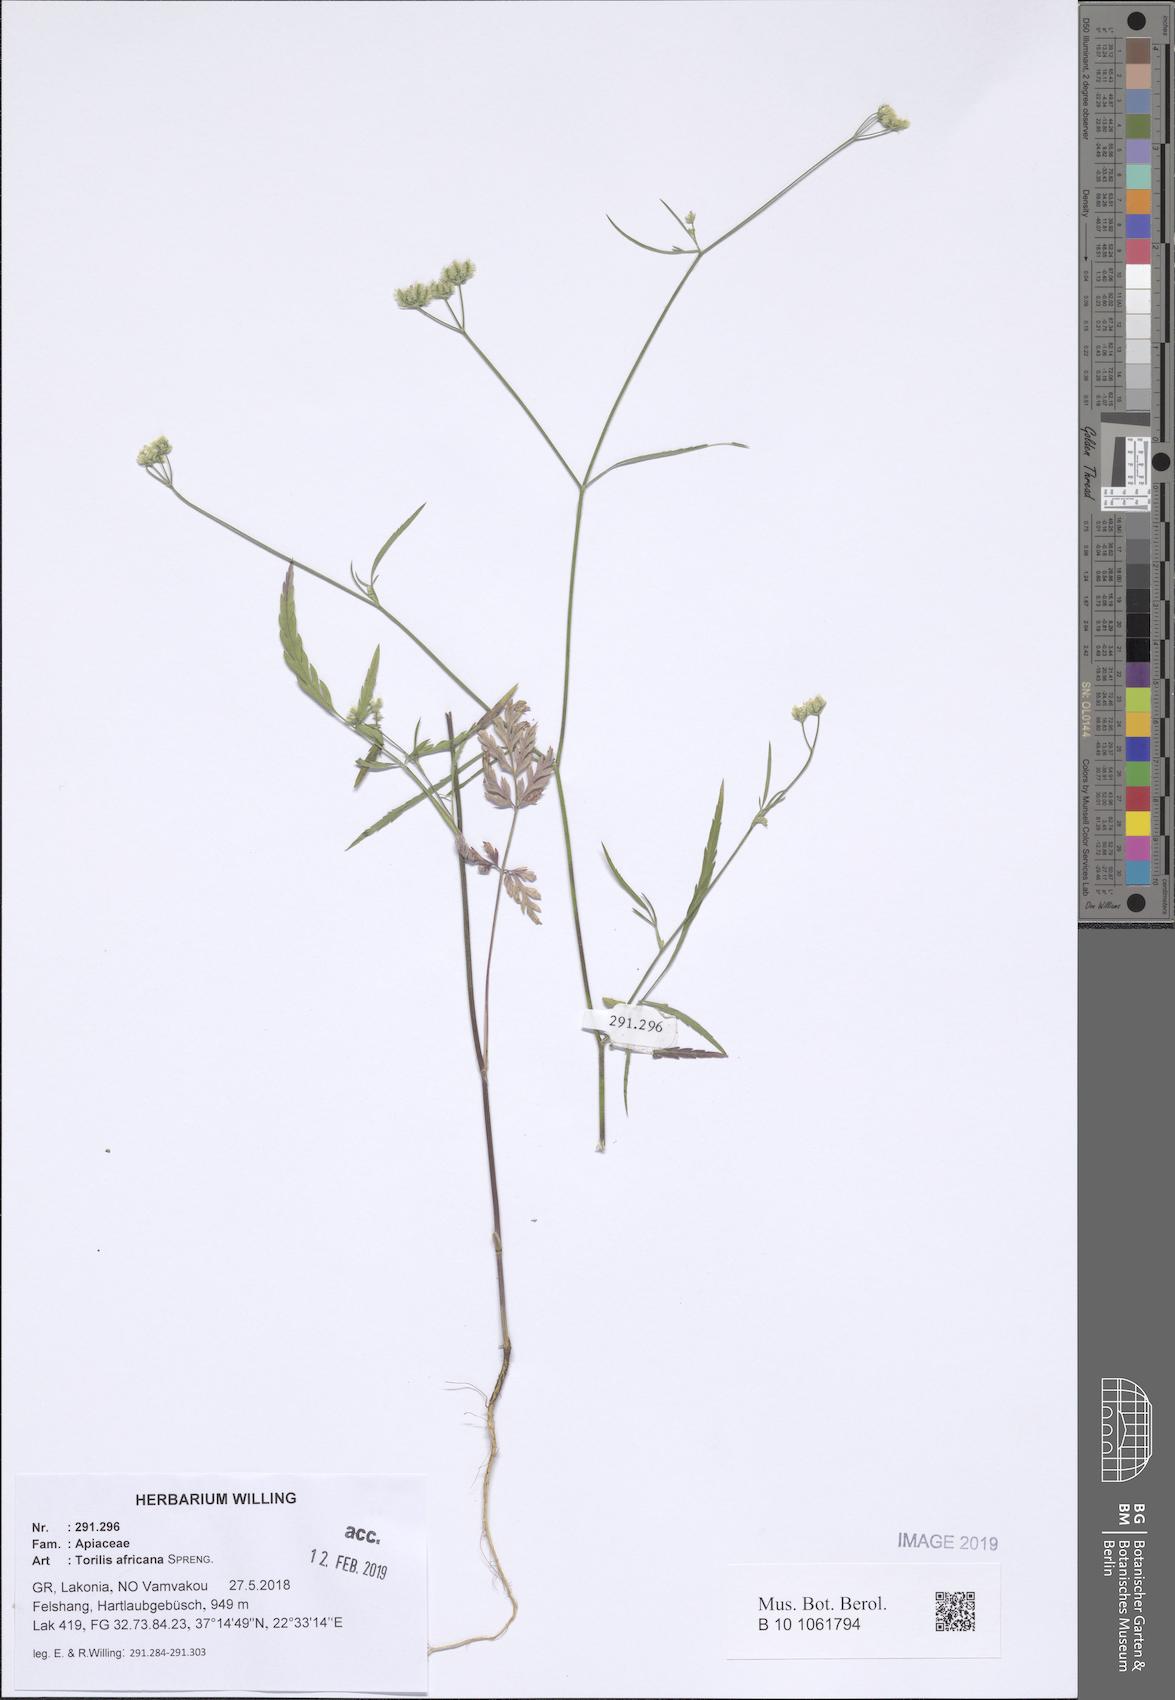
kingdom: Plantae
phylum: Tracheophyta
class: Magnoliopsida
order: Apiales
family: Apiaceae
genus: Torilis
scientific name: Torilis africana
